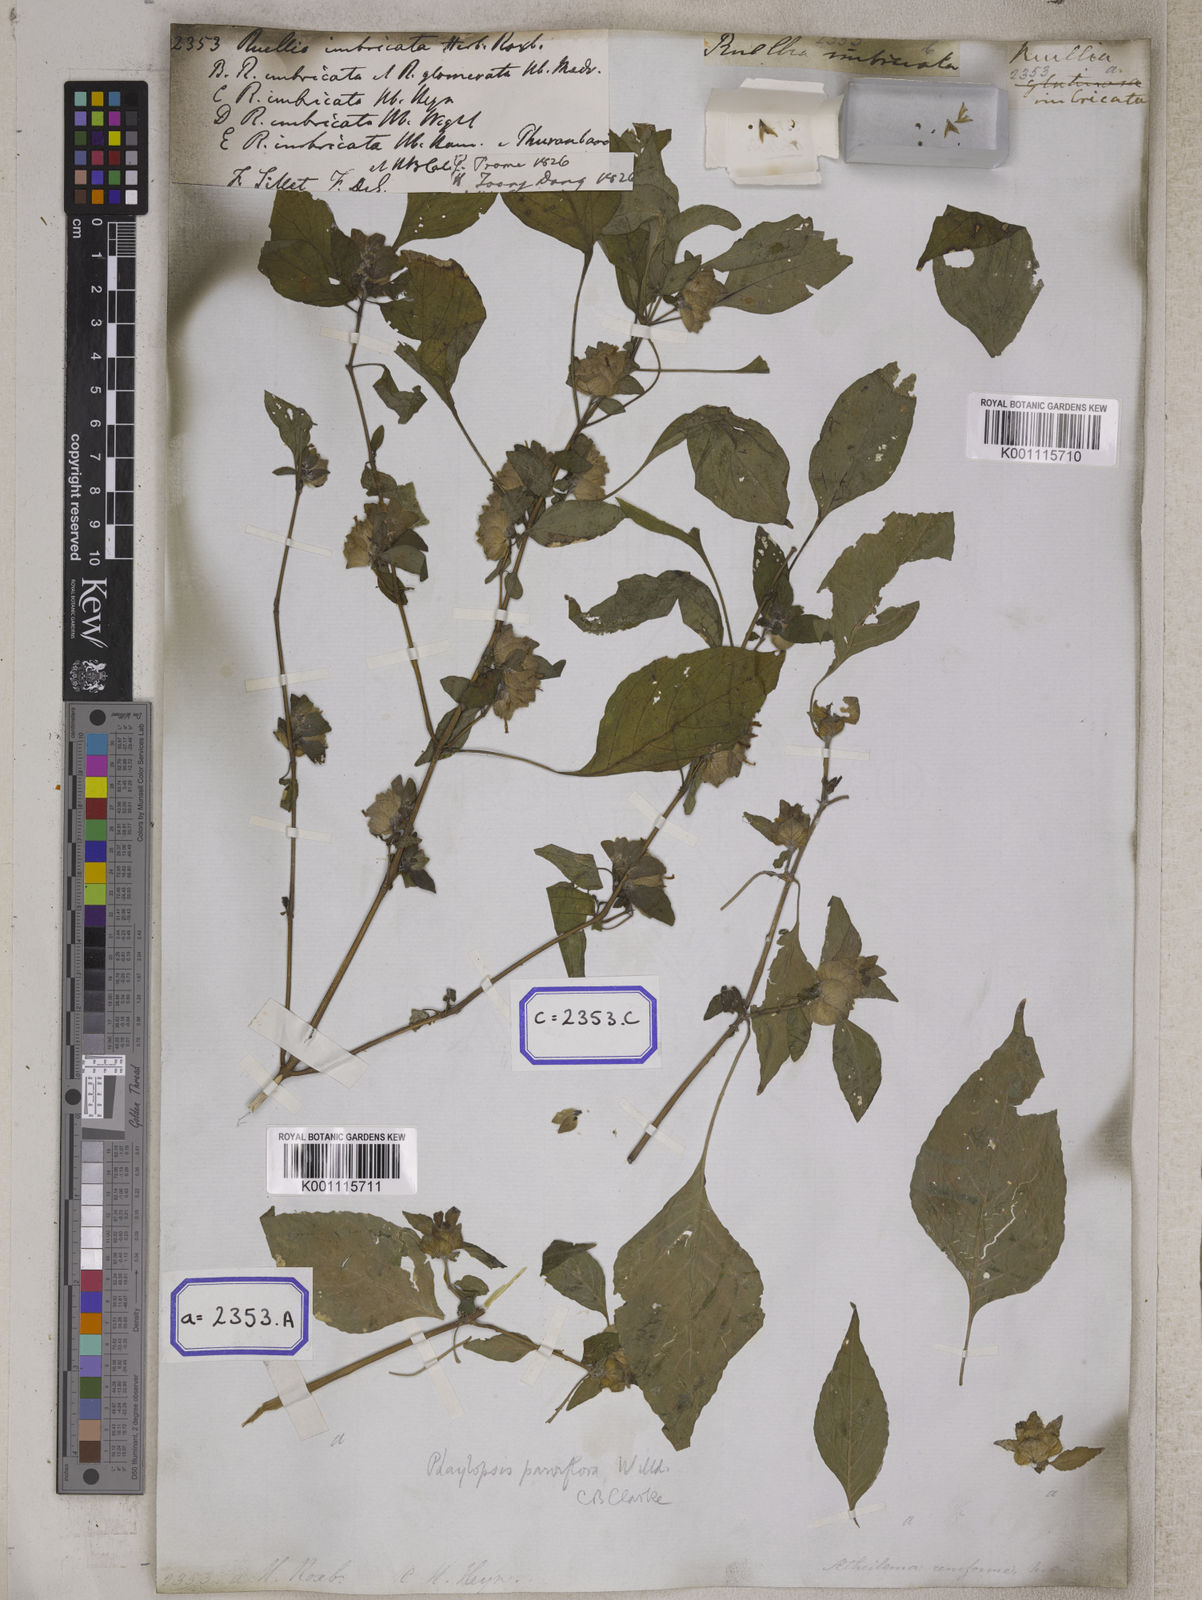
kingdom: Plantae
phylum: Tracheophyta
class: Magnoliopsida
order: Lamiales
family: Acanthaceae
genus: Phaulopsis
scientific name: Phaulopsis imbricata
